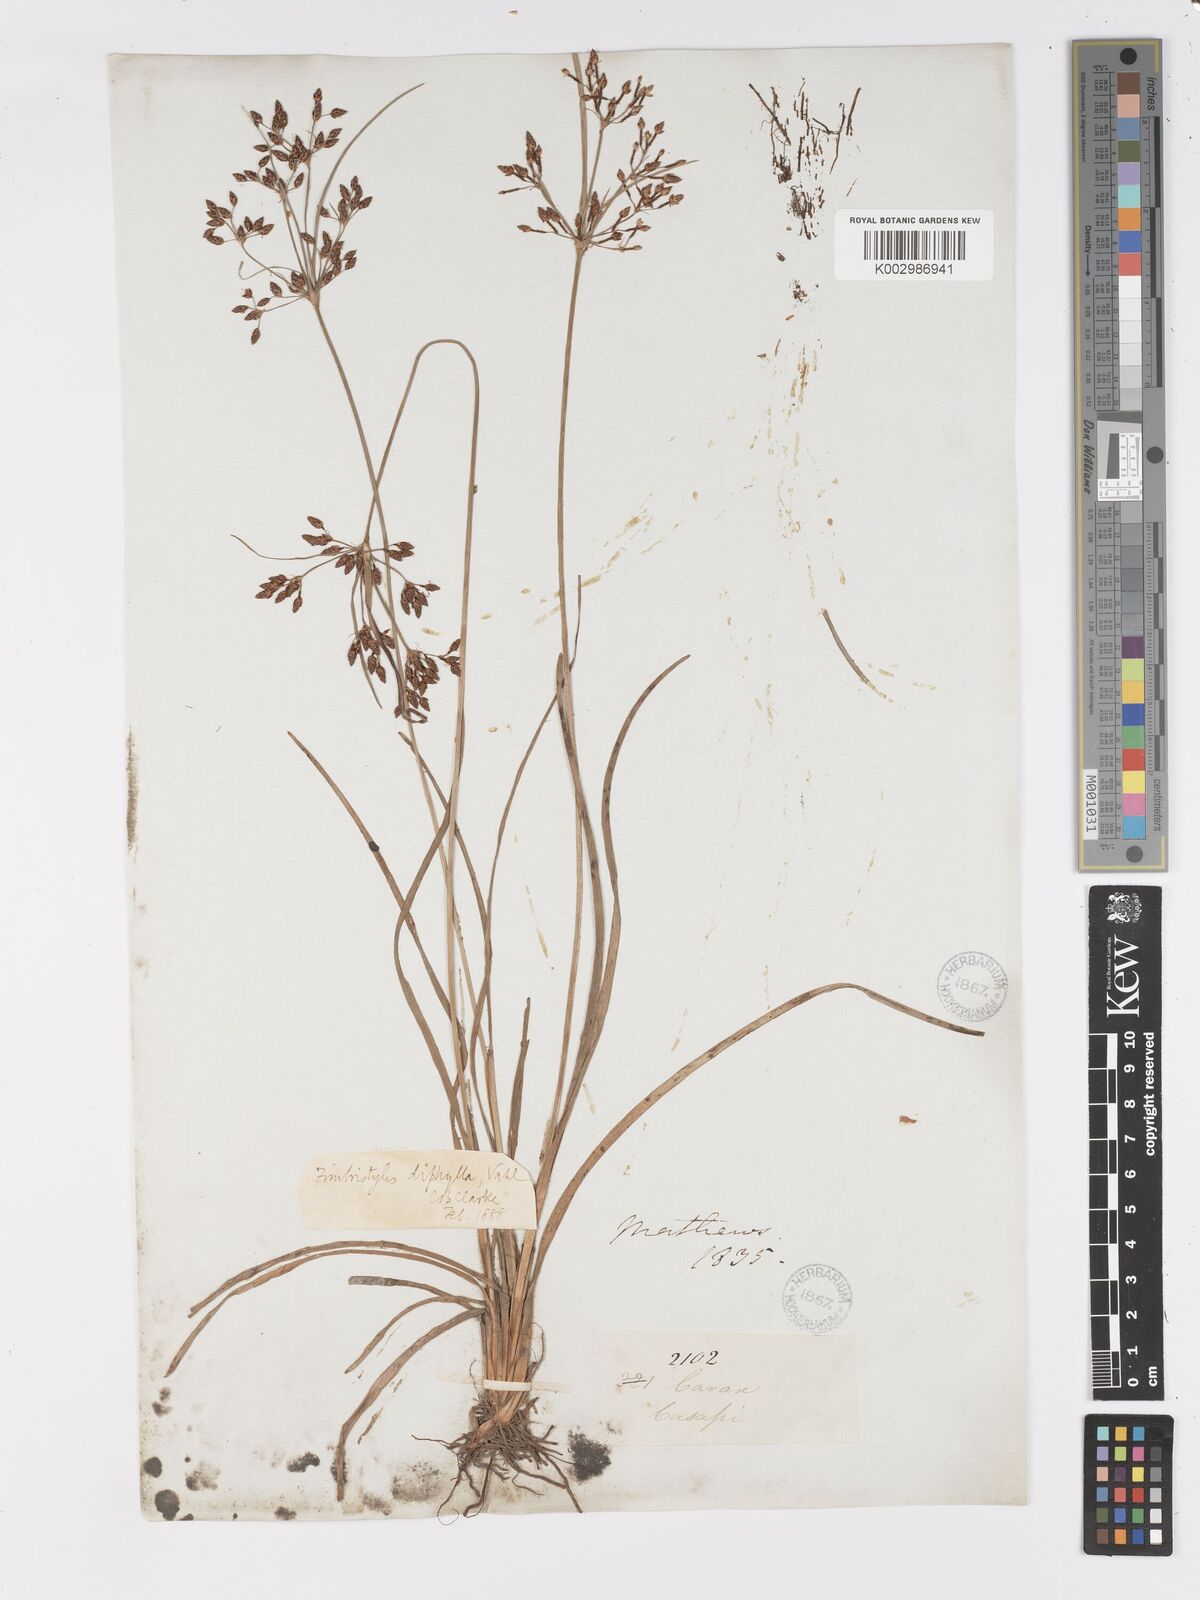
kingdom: Plantae
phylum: Tracheophyta
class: Liliopsida
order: Poales
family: Cyperaceae
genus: Fimbristylis
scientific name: Fimbristylis dichotoma
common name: Forked fimbry
